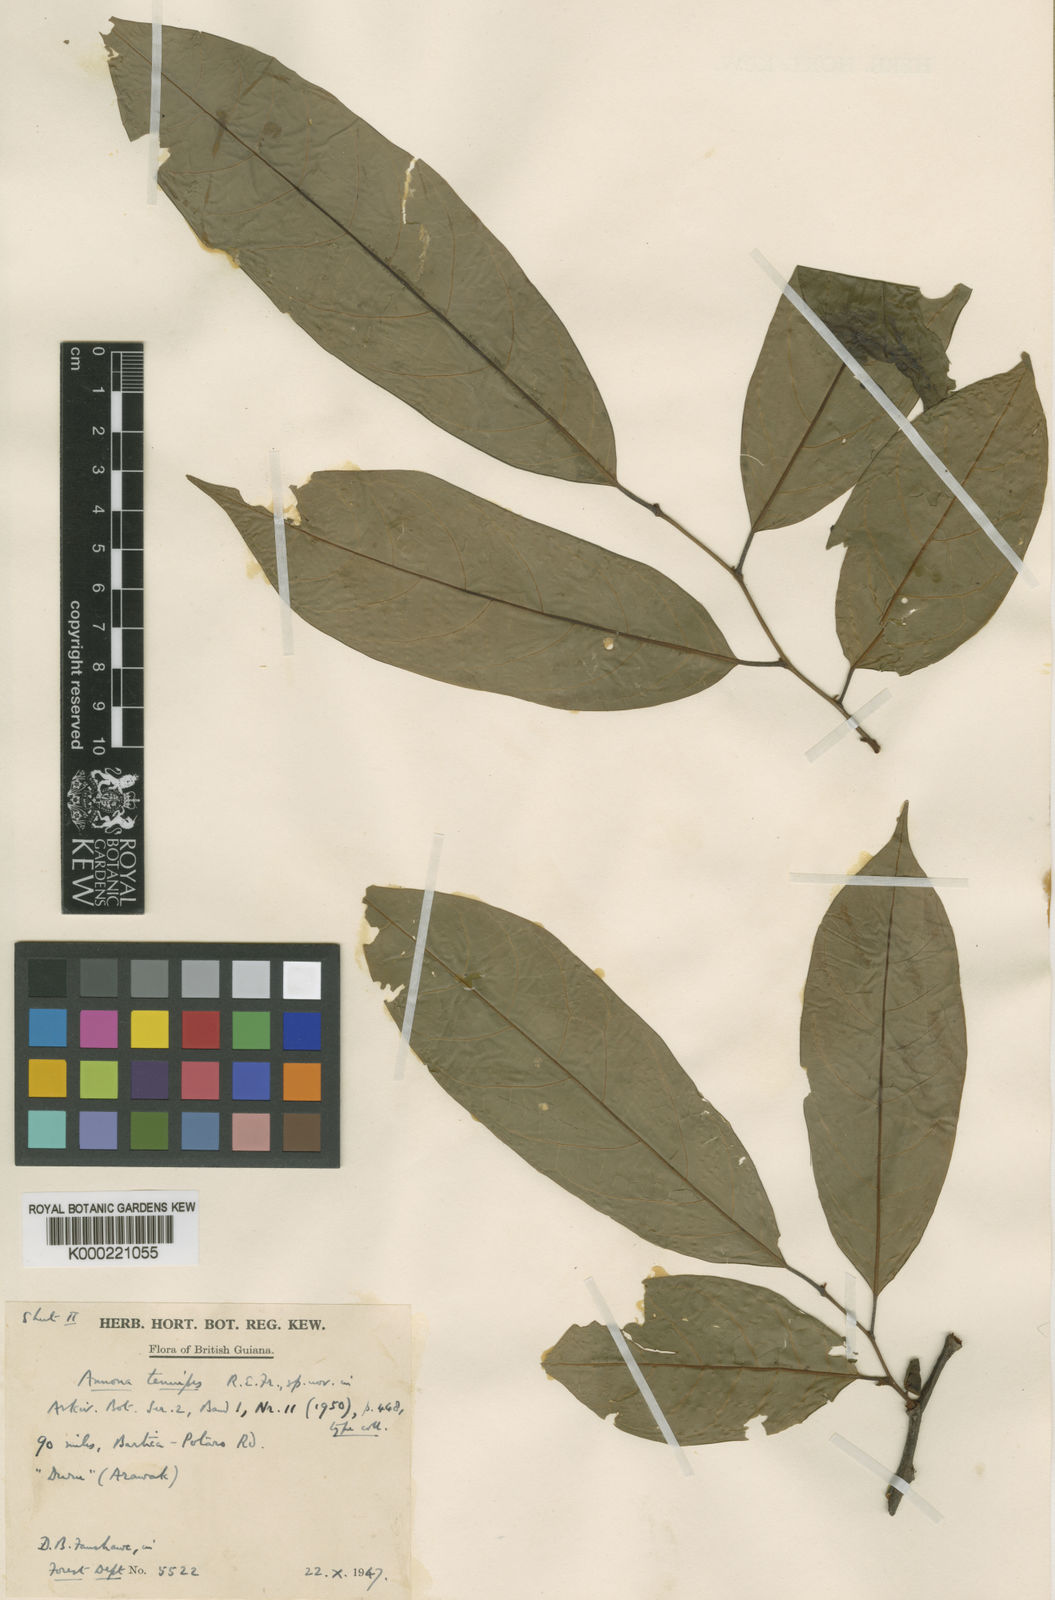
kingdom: Plantae
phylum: Tracheophyta
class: Magnoliopsida
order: Magnoliales
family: Annonaceae
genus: Annona
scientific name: Annona symphyocarpa
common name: Custard apple
